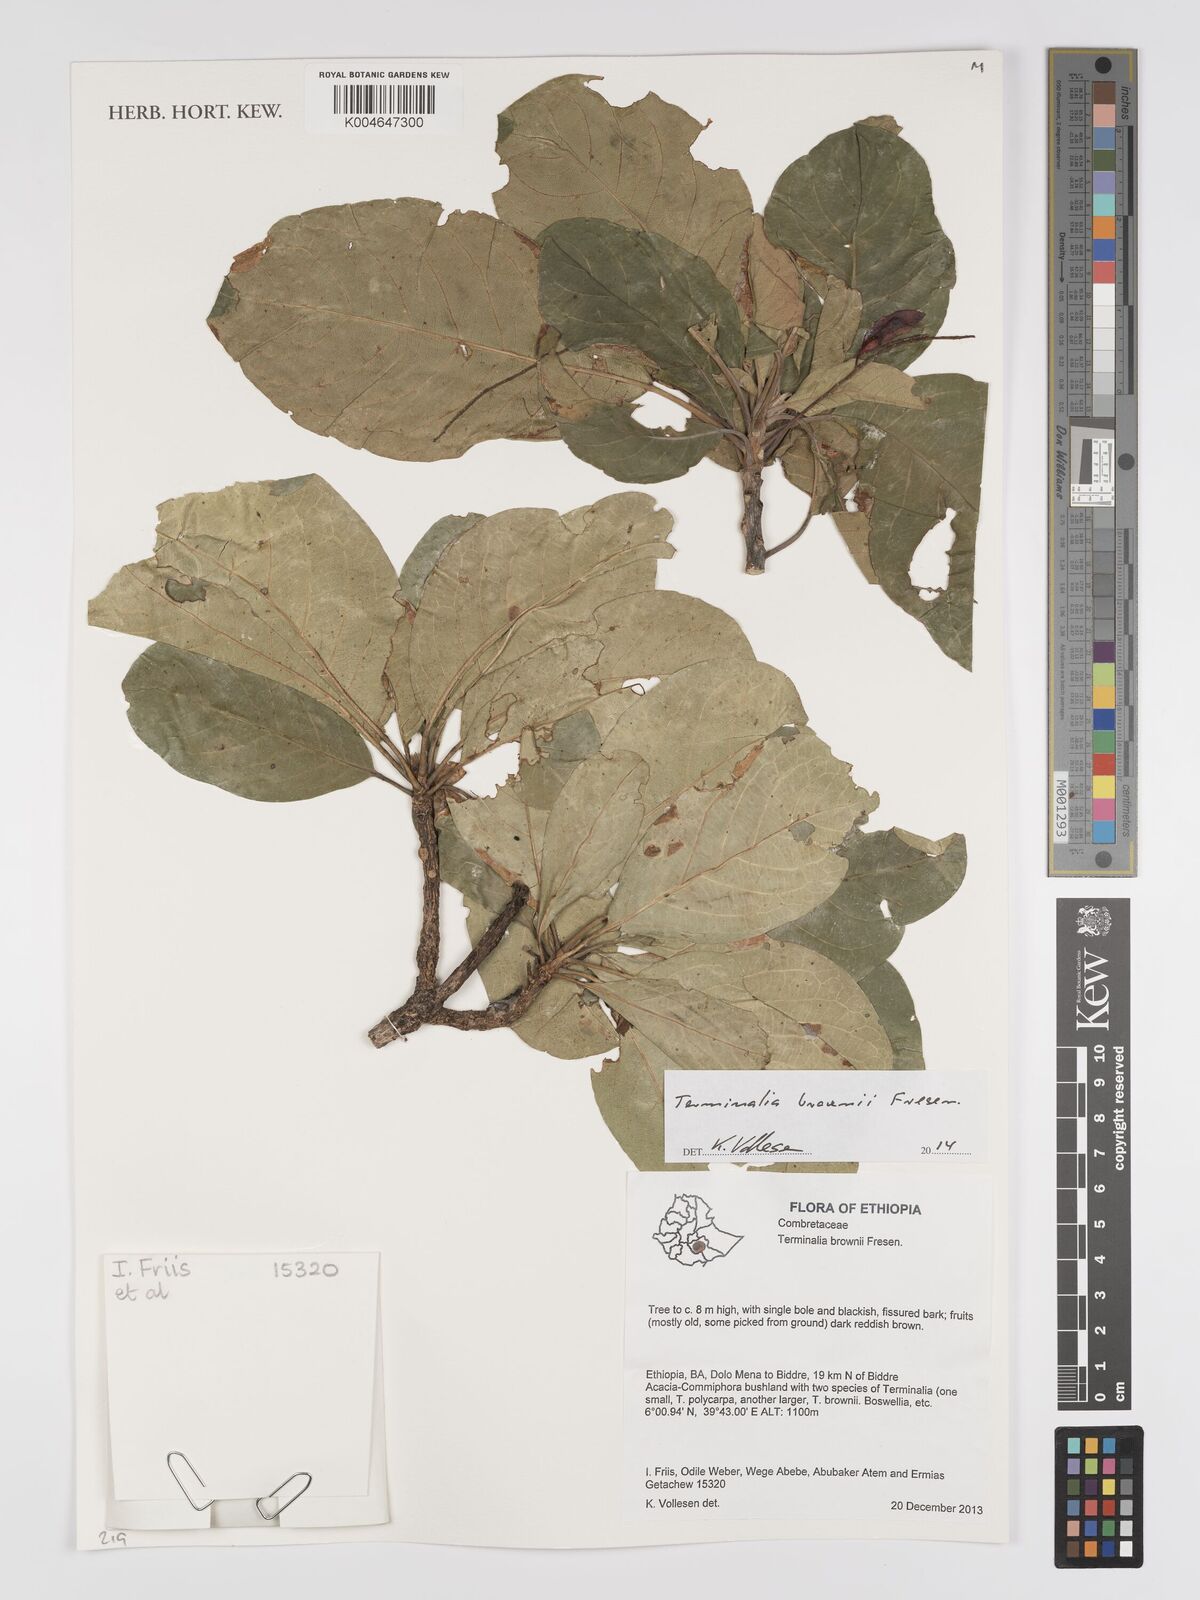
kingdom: Plantae
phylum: Tracheophyta
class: Magnoliopsida
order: Myrtales
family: Combretaceae
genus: Terminalia
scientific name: Terminalia brownii
